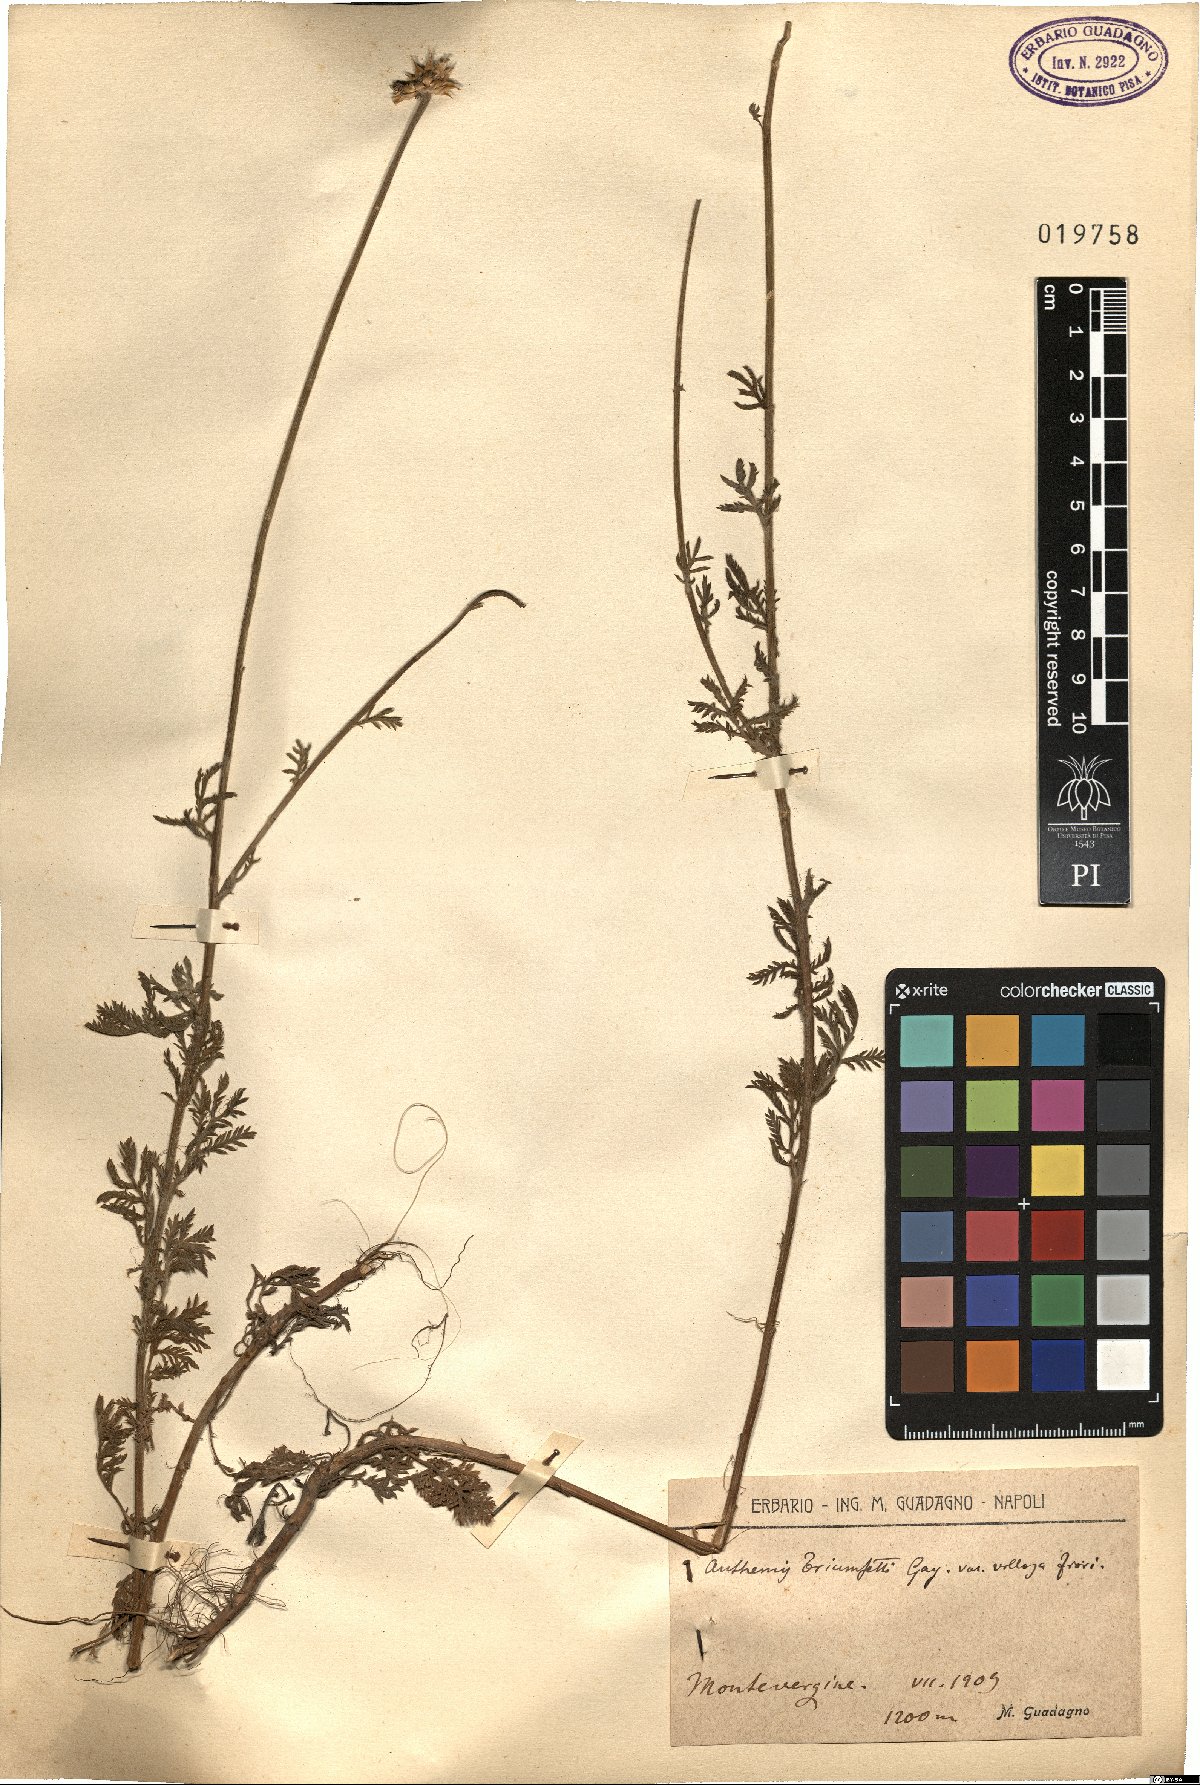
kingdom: Plantae
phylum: Tracheophyta
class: Magnoliopsida
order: Asterales
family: Asteraceae
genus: Cota
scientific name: Cota triumfetti
